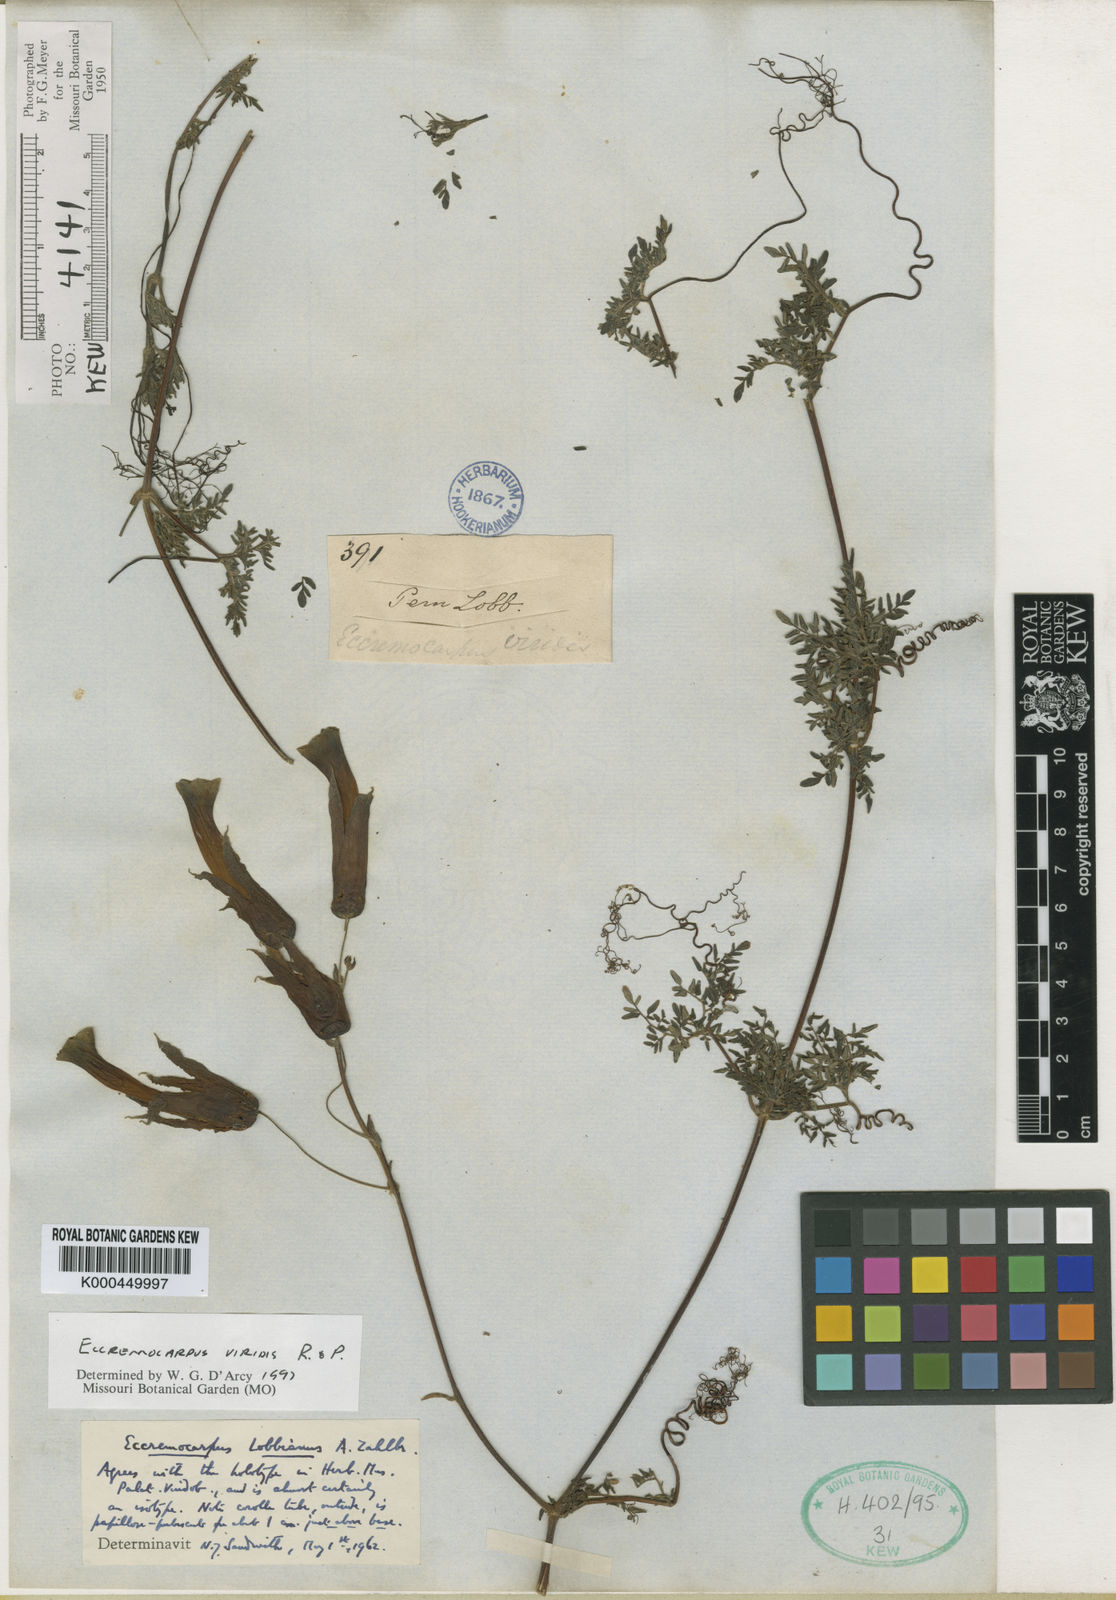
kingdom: Plantae
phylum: Tracheophyta
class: Magnoliopsida
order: Lamiales
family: Bignoniaceae
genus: Eccremocarpus
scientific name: Eccremocarpus viridis
